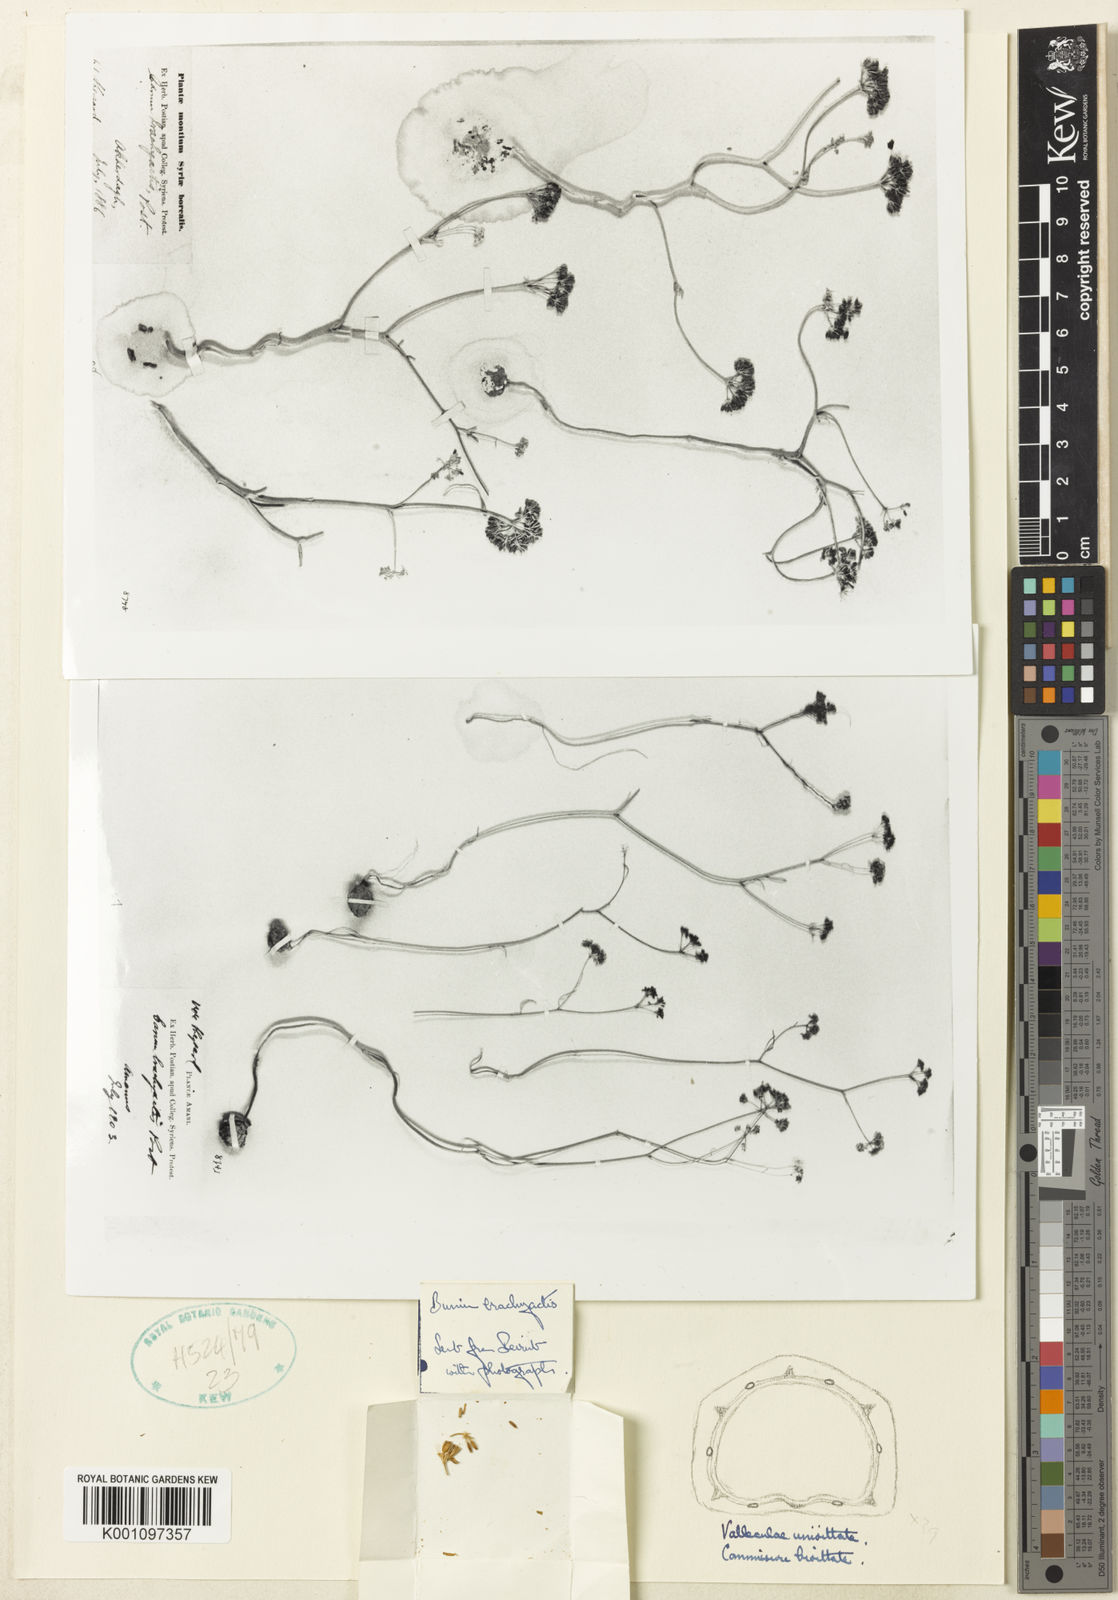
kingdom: Plantae
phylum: Tracheophyta
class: Magnoliopsida
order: Apiales
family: Apiaceae
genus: Bunium
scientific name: Bunium brachyactis
